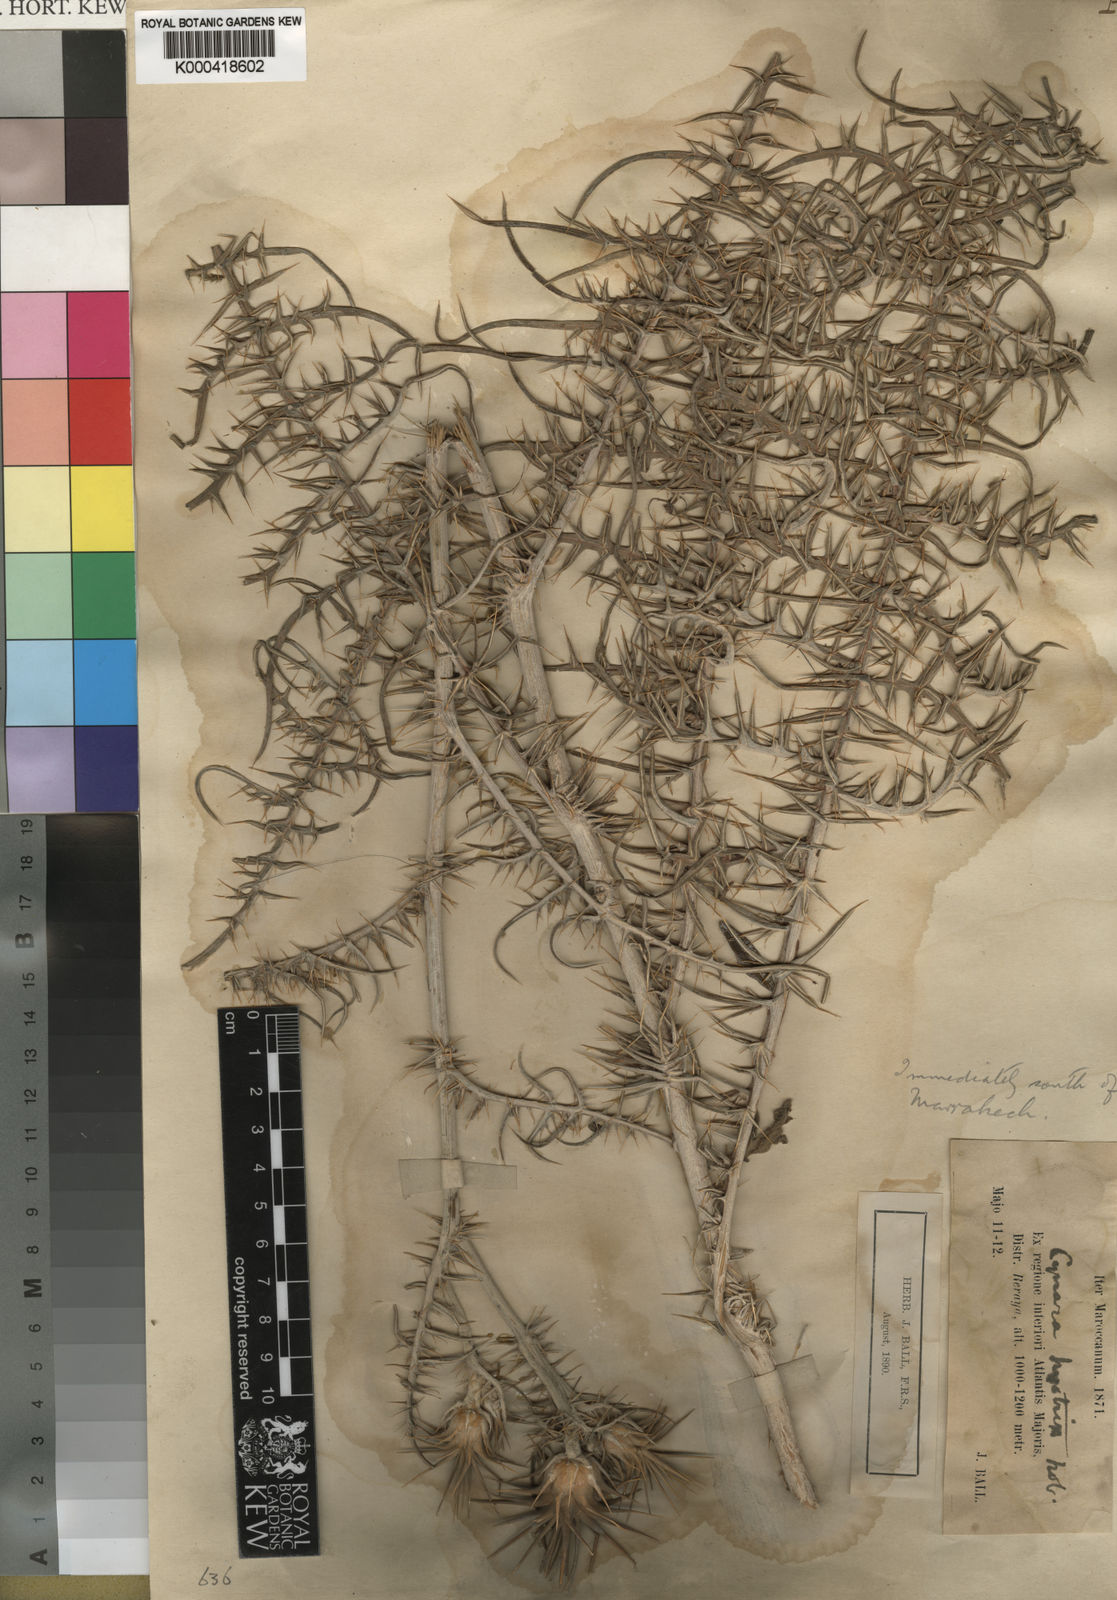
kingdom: Plantae
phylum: Tracheophyta
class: Magnoliopsida
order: Asterales
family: Asteraceae
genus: Cynara
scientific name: Cynara baetica
